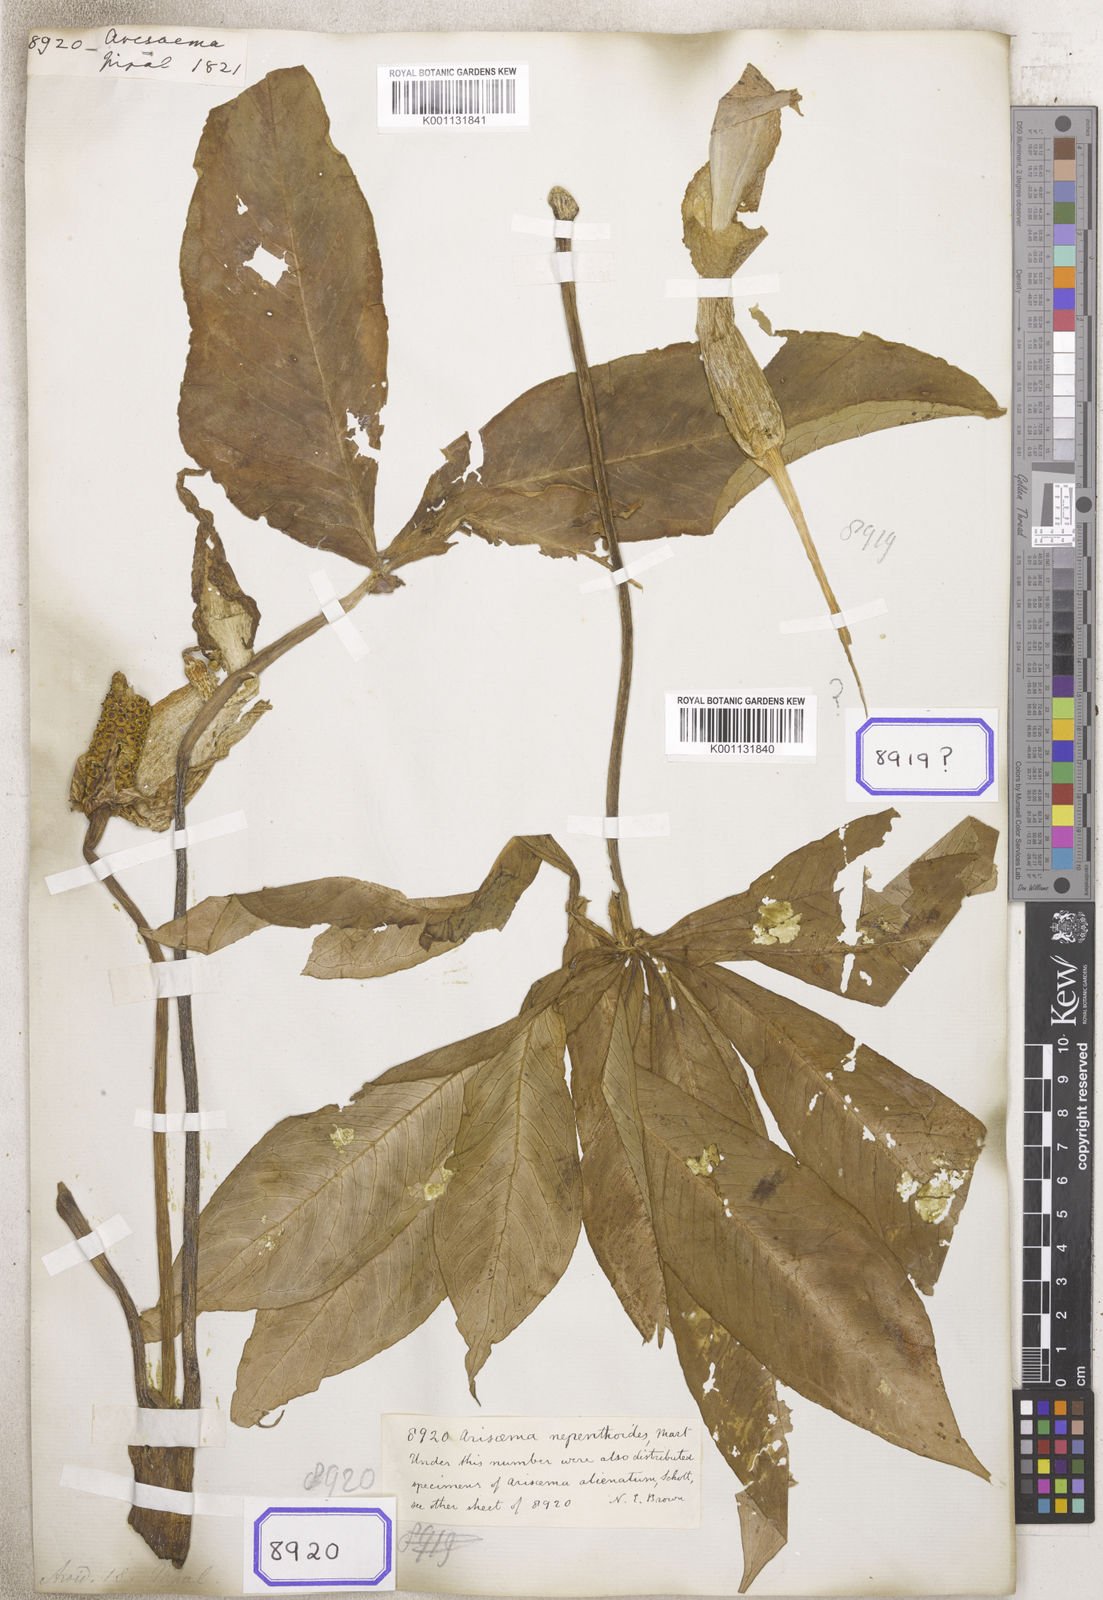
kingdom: Plantae
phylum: Tracheophyta
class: Liliopsida
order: Alismatales
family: Araceae
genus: Arisaema
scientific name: Arisaema nepenthoides
